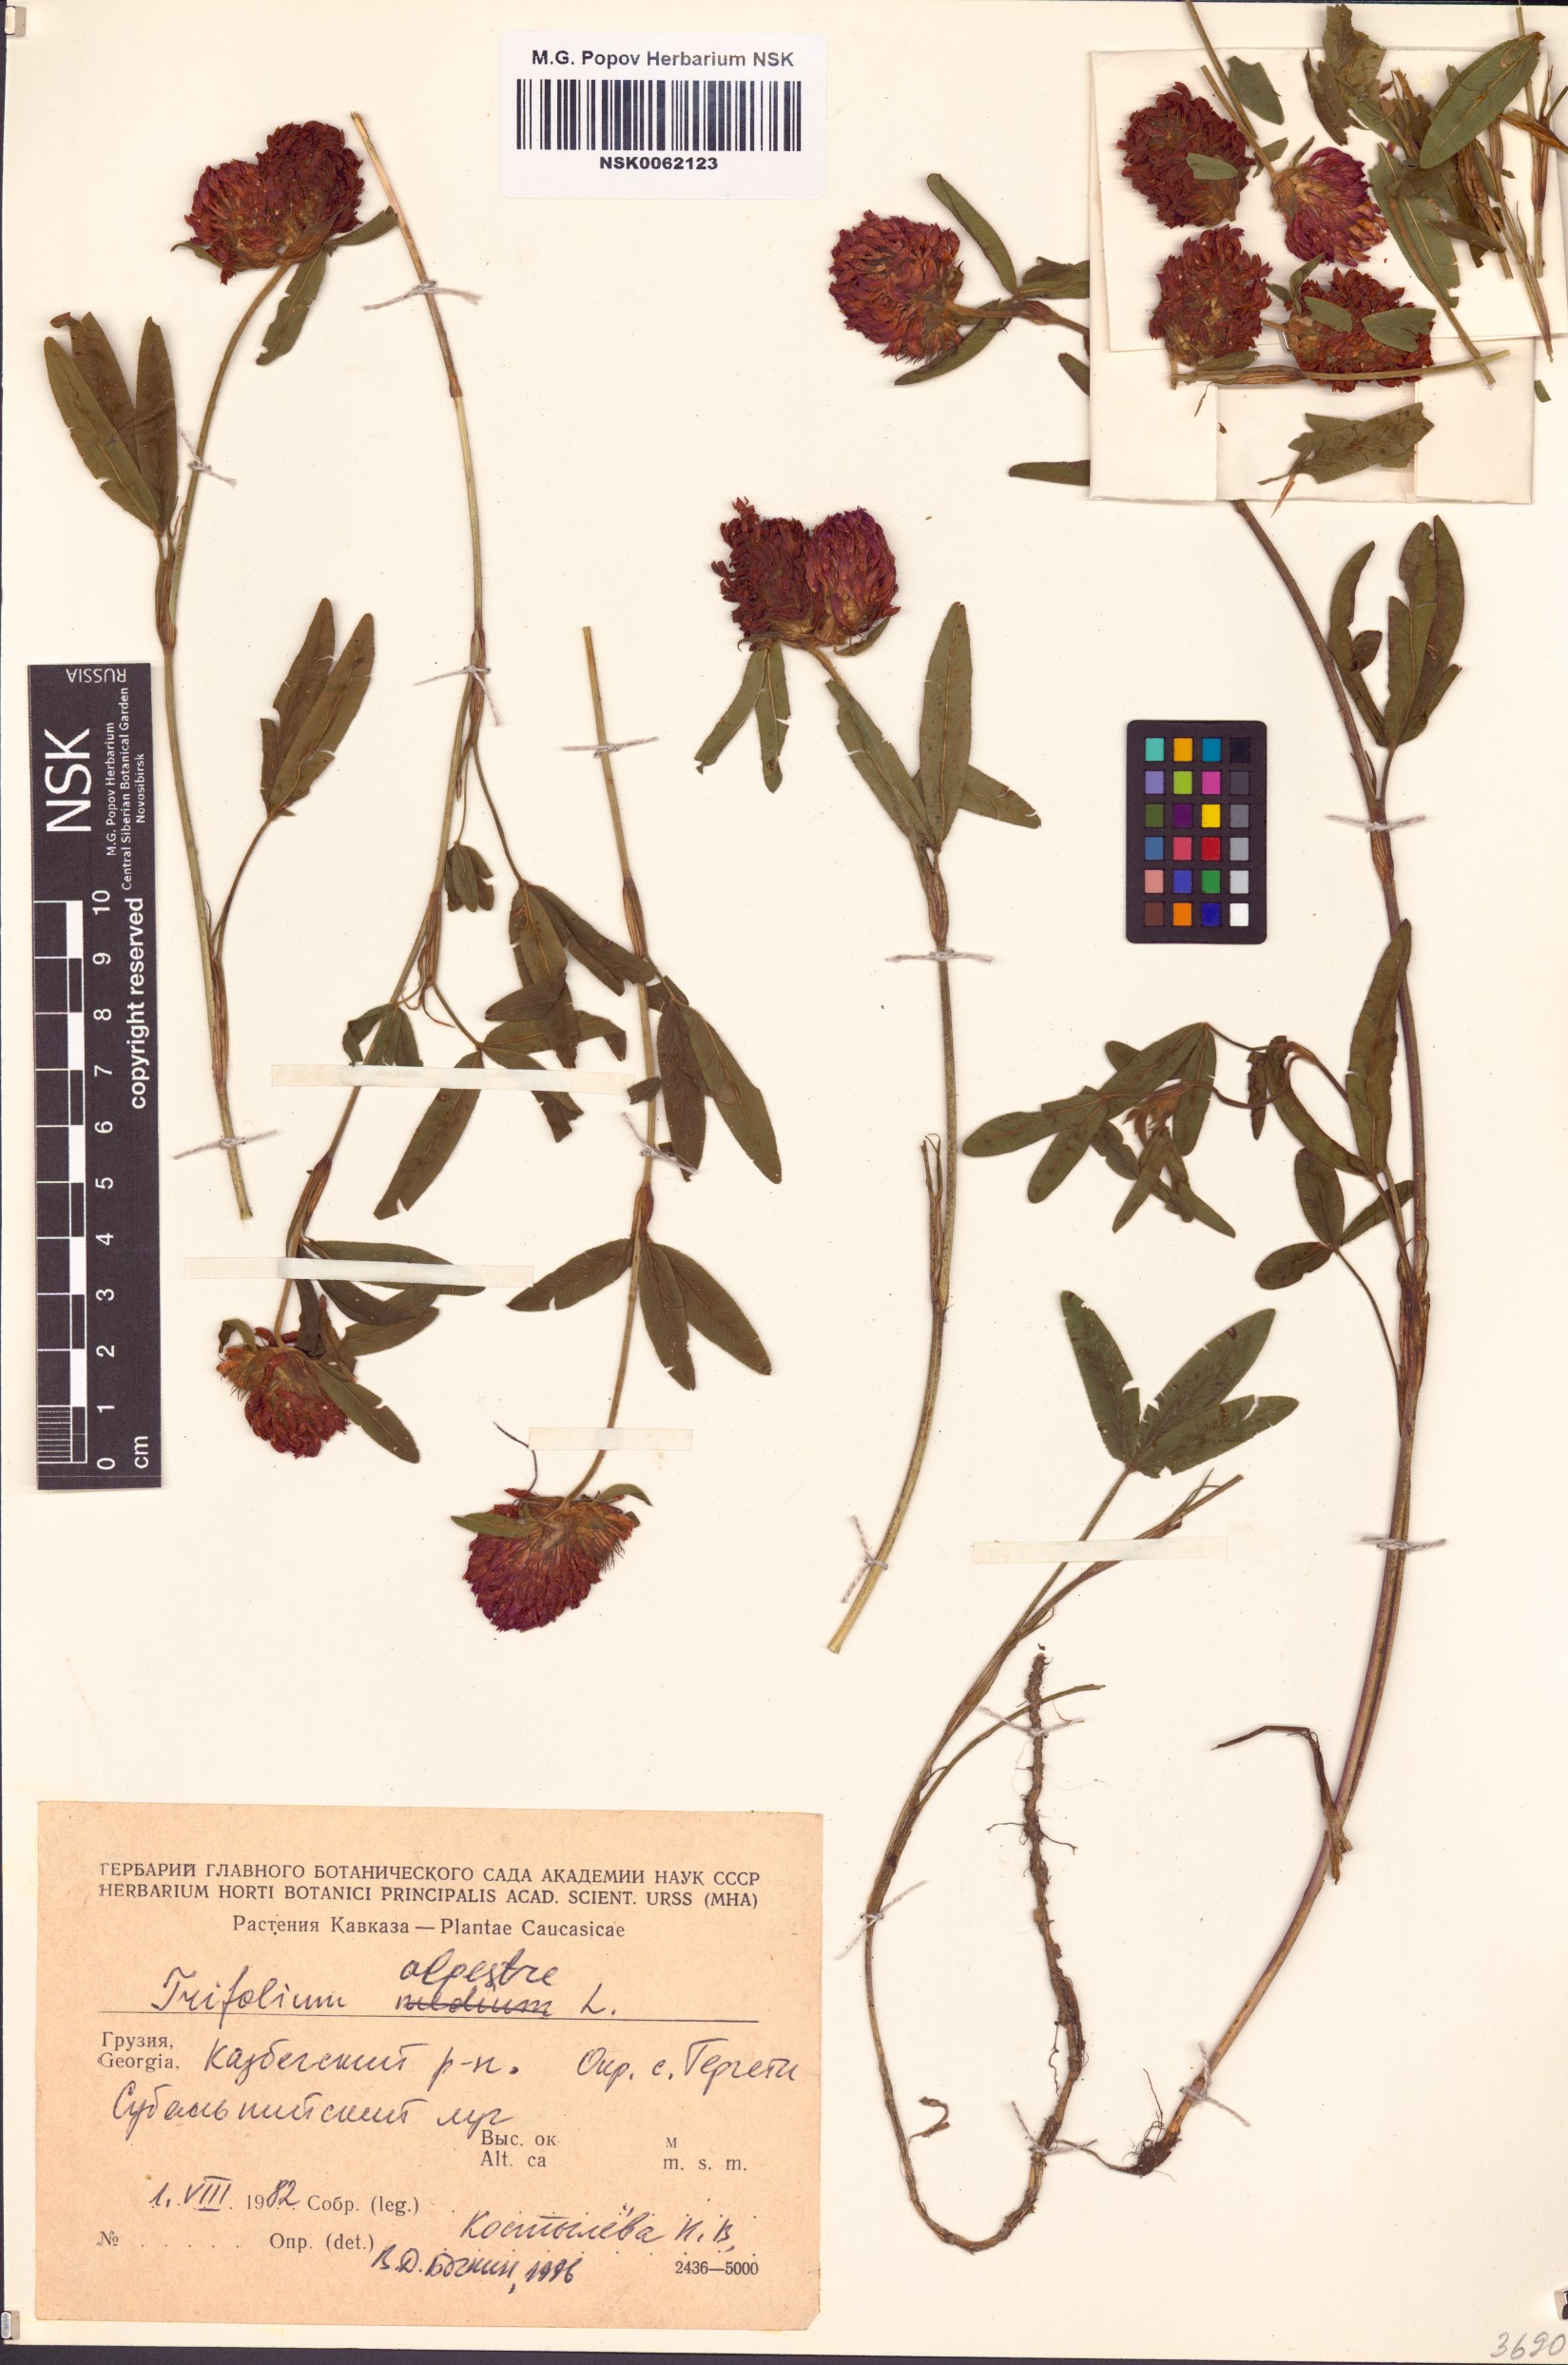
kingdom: Plantae
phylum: Tracheophyta
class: Magnoliopsida
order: Fabales
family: Fabaceae
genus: Trifolium
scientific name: Trifolium alpestre
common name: Owl-head clover
